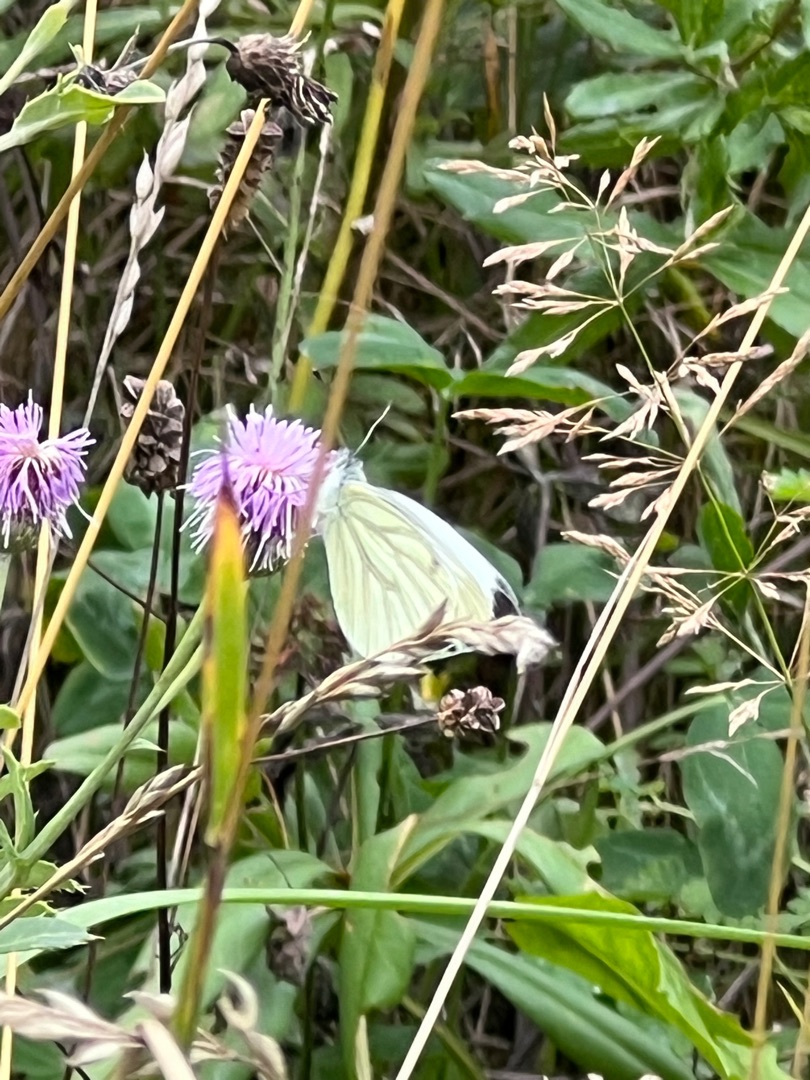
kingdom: Animalia
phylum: Arthropoda
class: Insecta
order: Lepidoptera
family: Pieridae
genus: Pieris
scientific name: Pieris napi
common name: Grønåret kålsommerfugl
